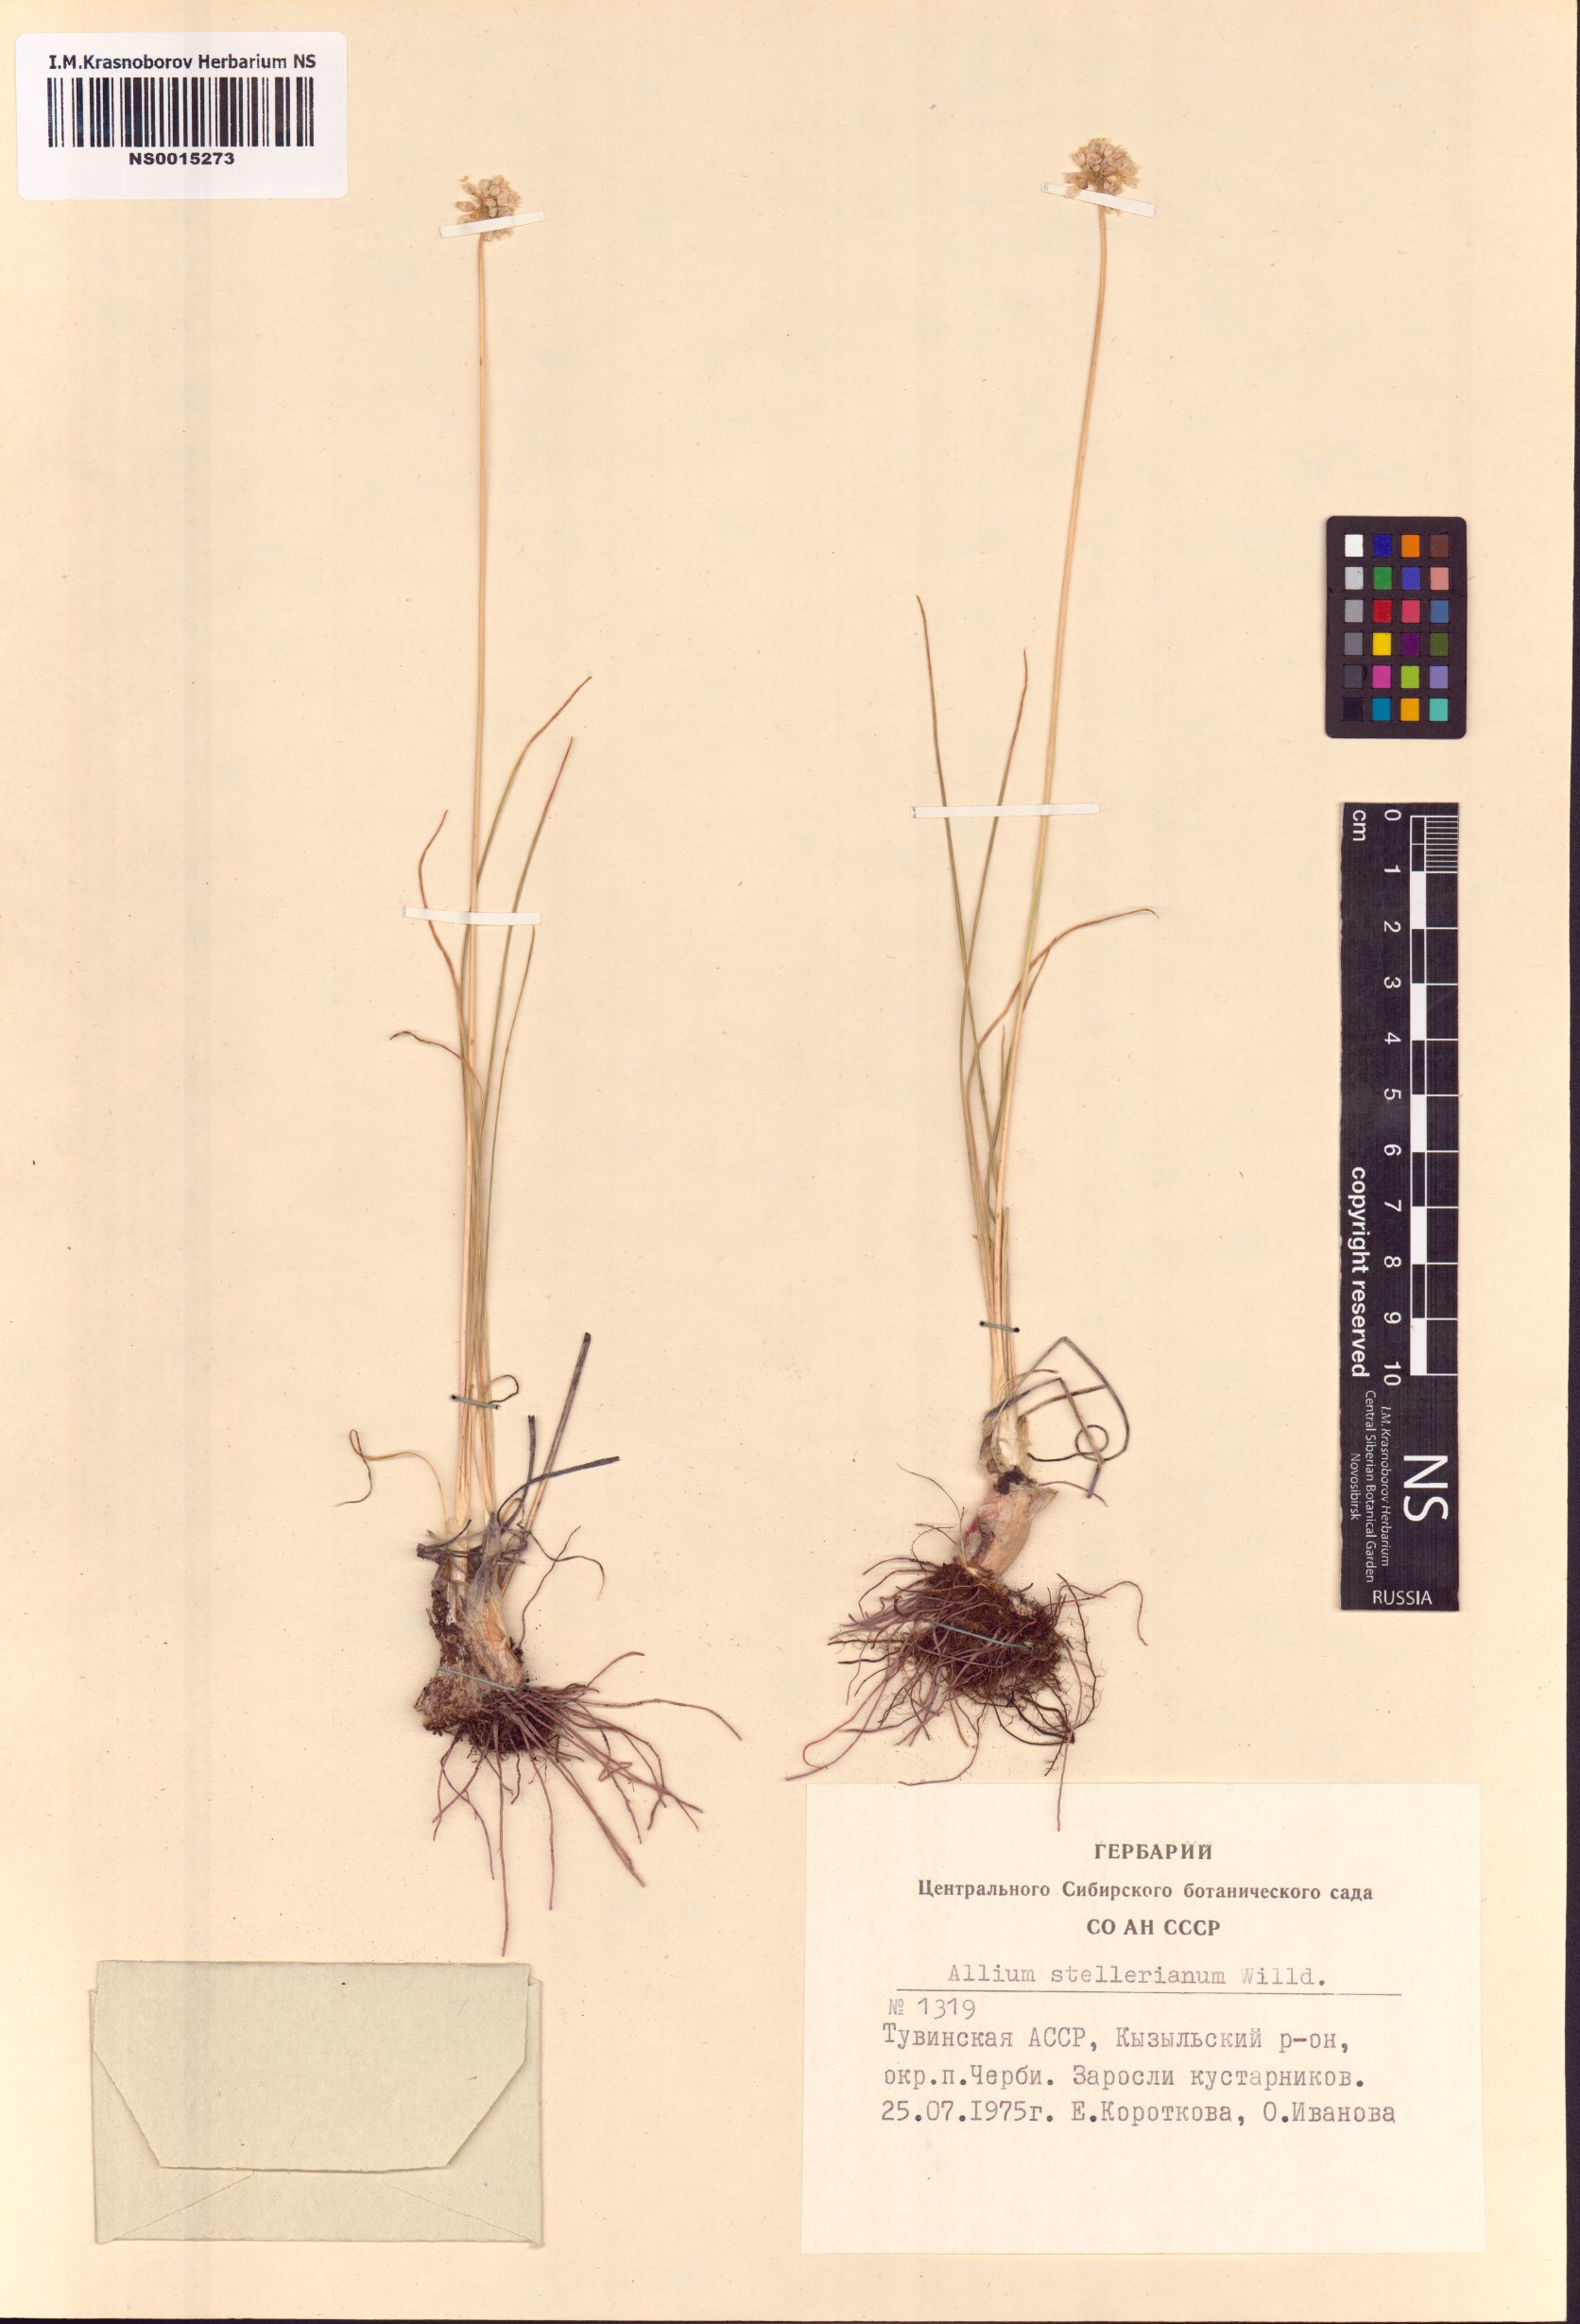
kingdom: Plantae
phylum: Tracheophyta
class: Liliopsida
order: Asparagales
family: Amaryllidaceae
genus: Allium
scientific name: Allium stellerianum
